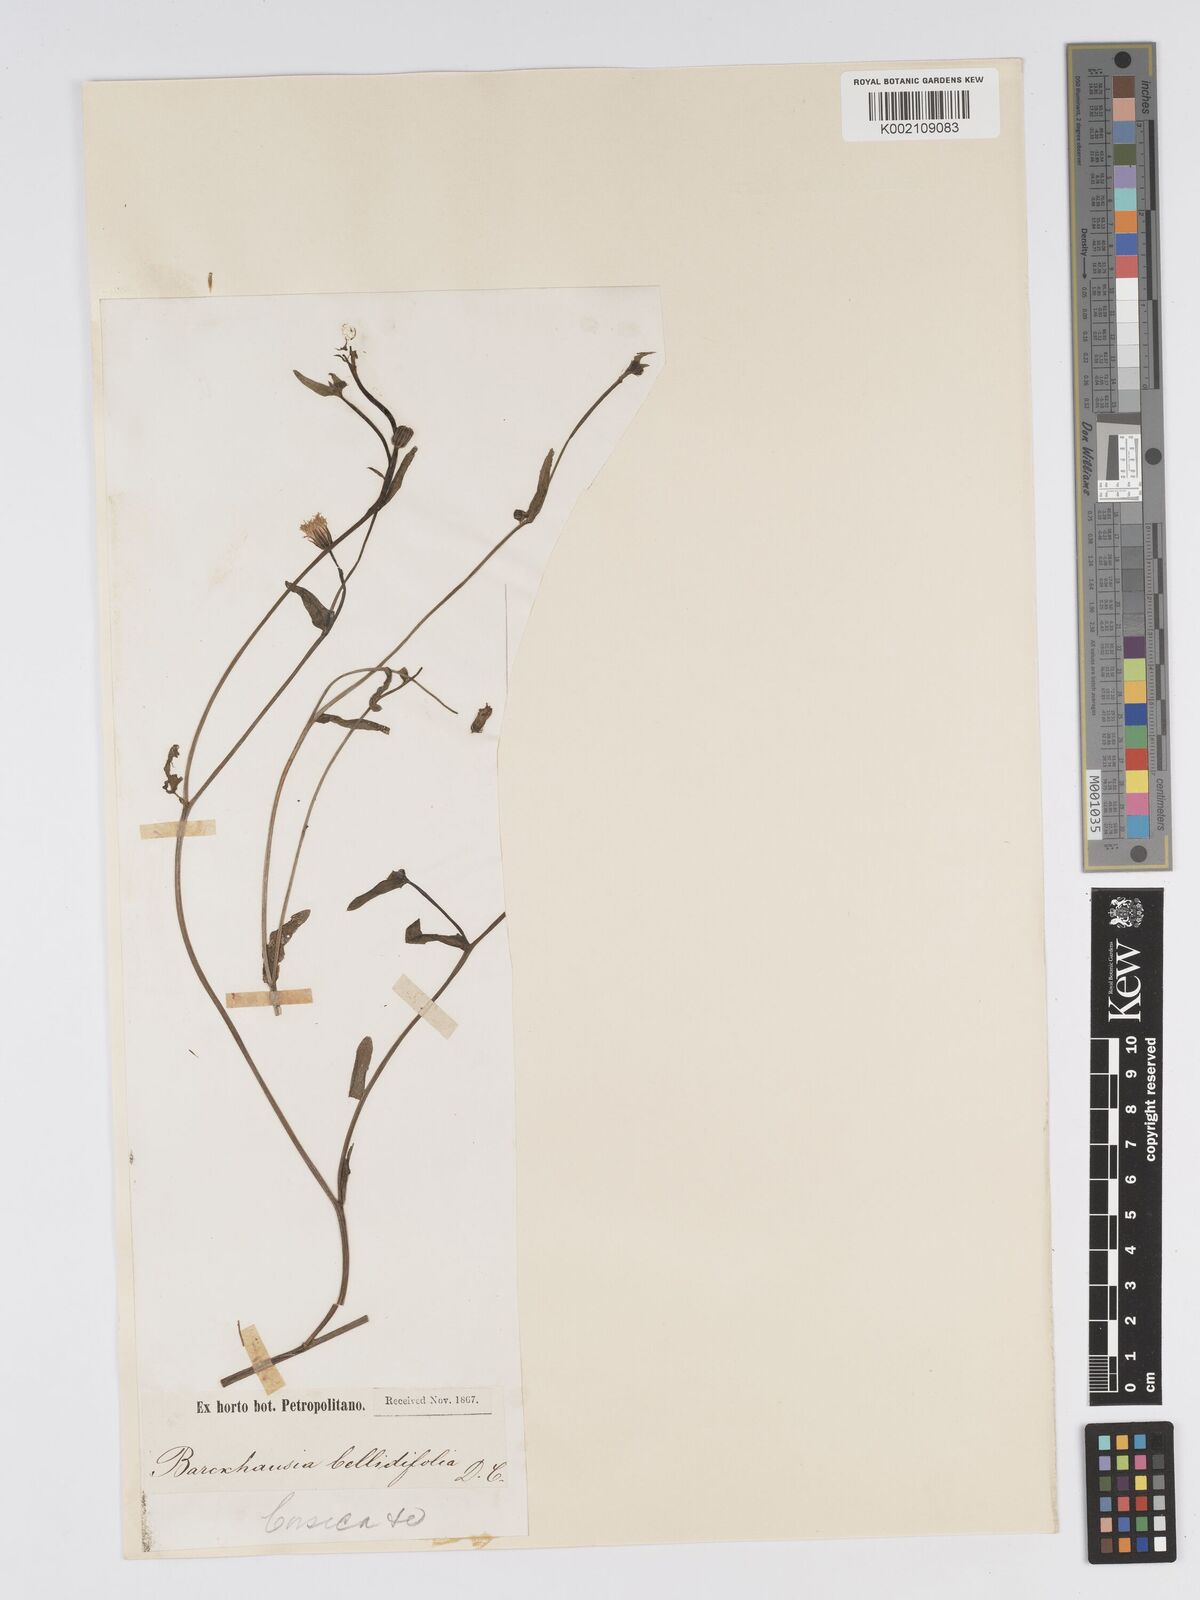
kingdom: Plantae
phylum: Tracheophyta
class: Magnoliopsida
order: Asterales
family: Asteraceae
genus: Crepis
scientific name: Crepis
